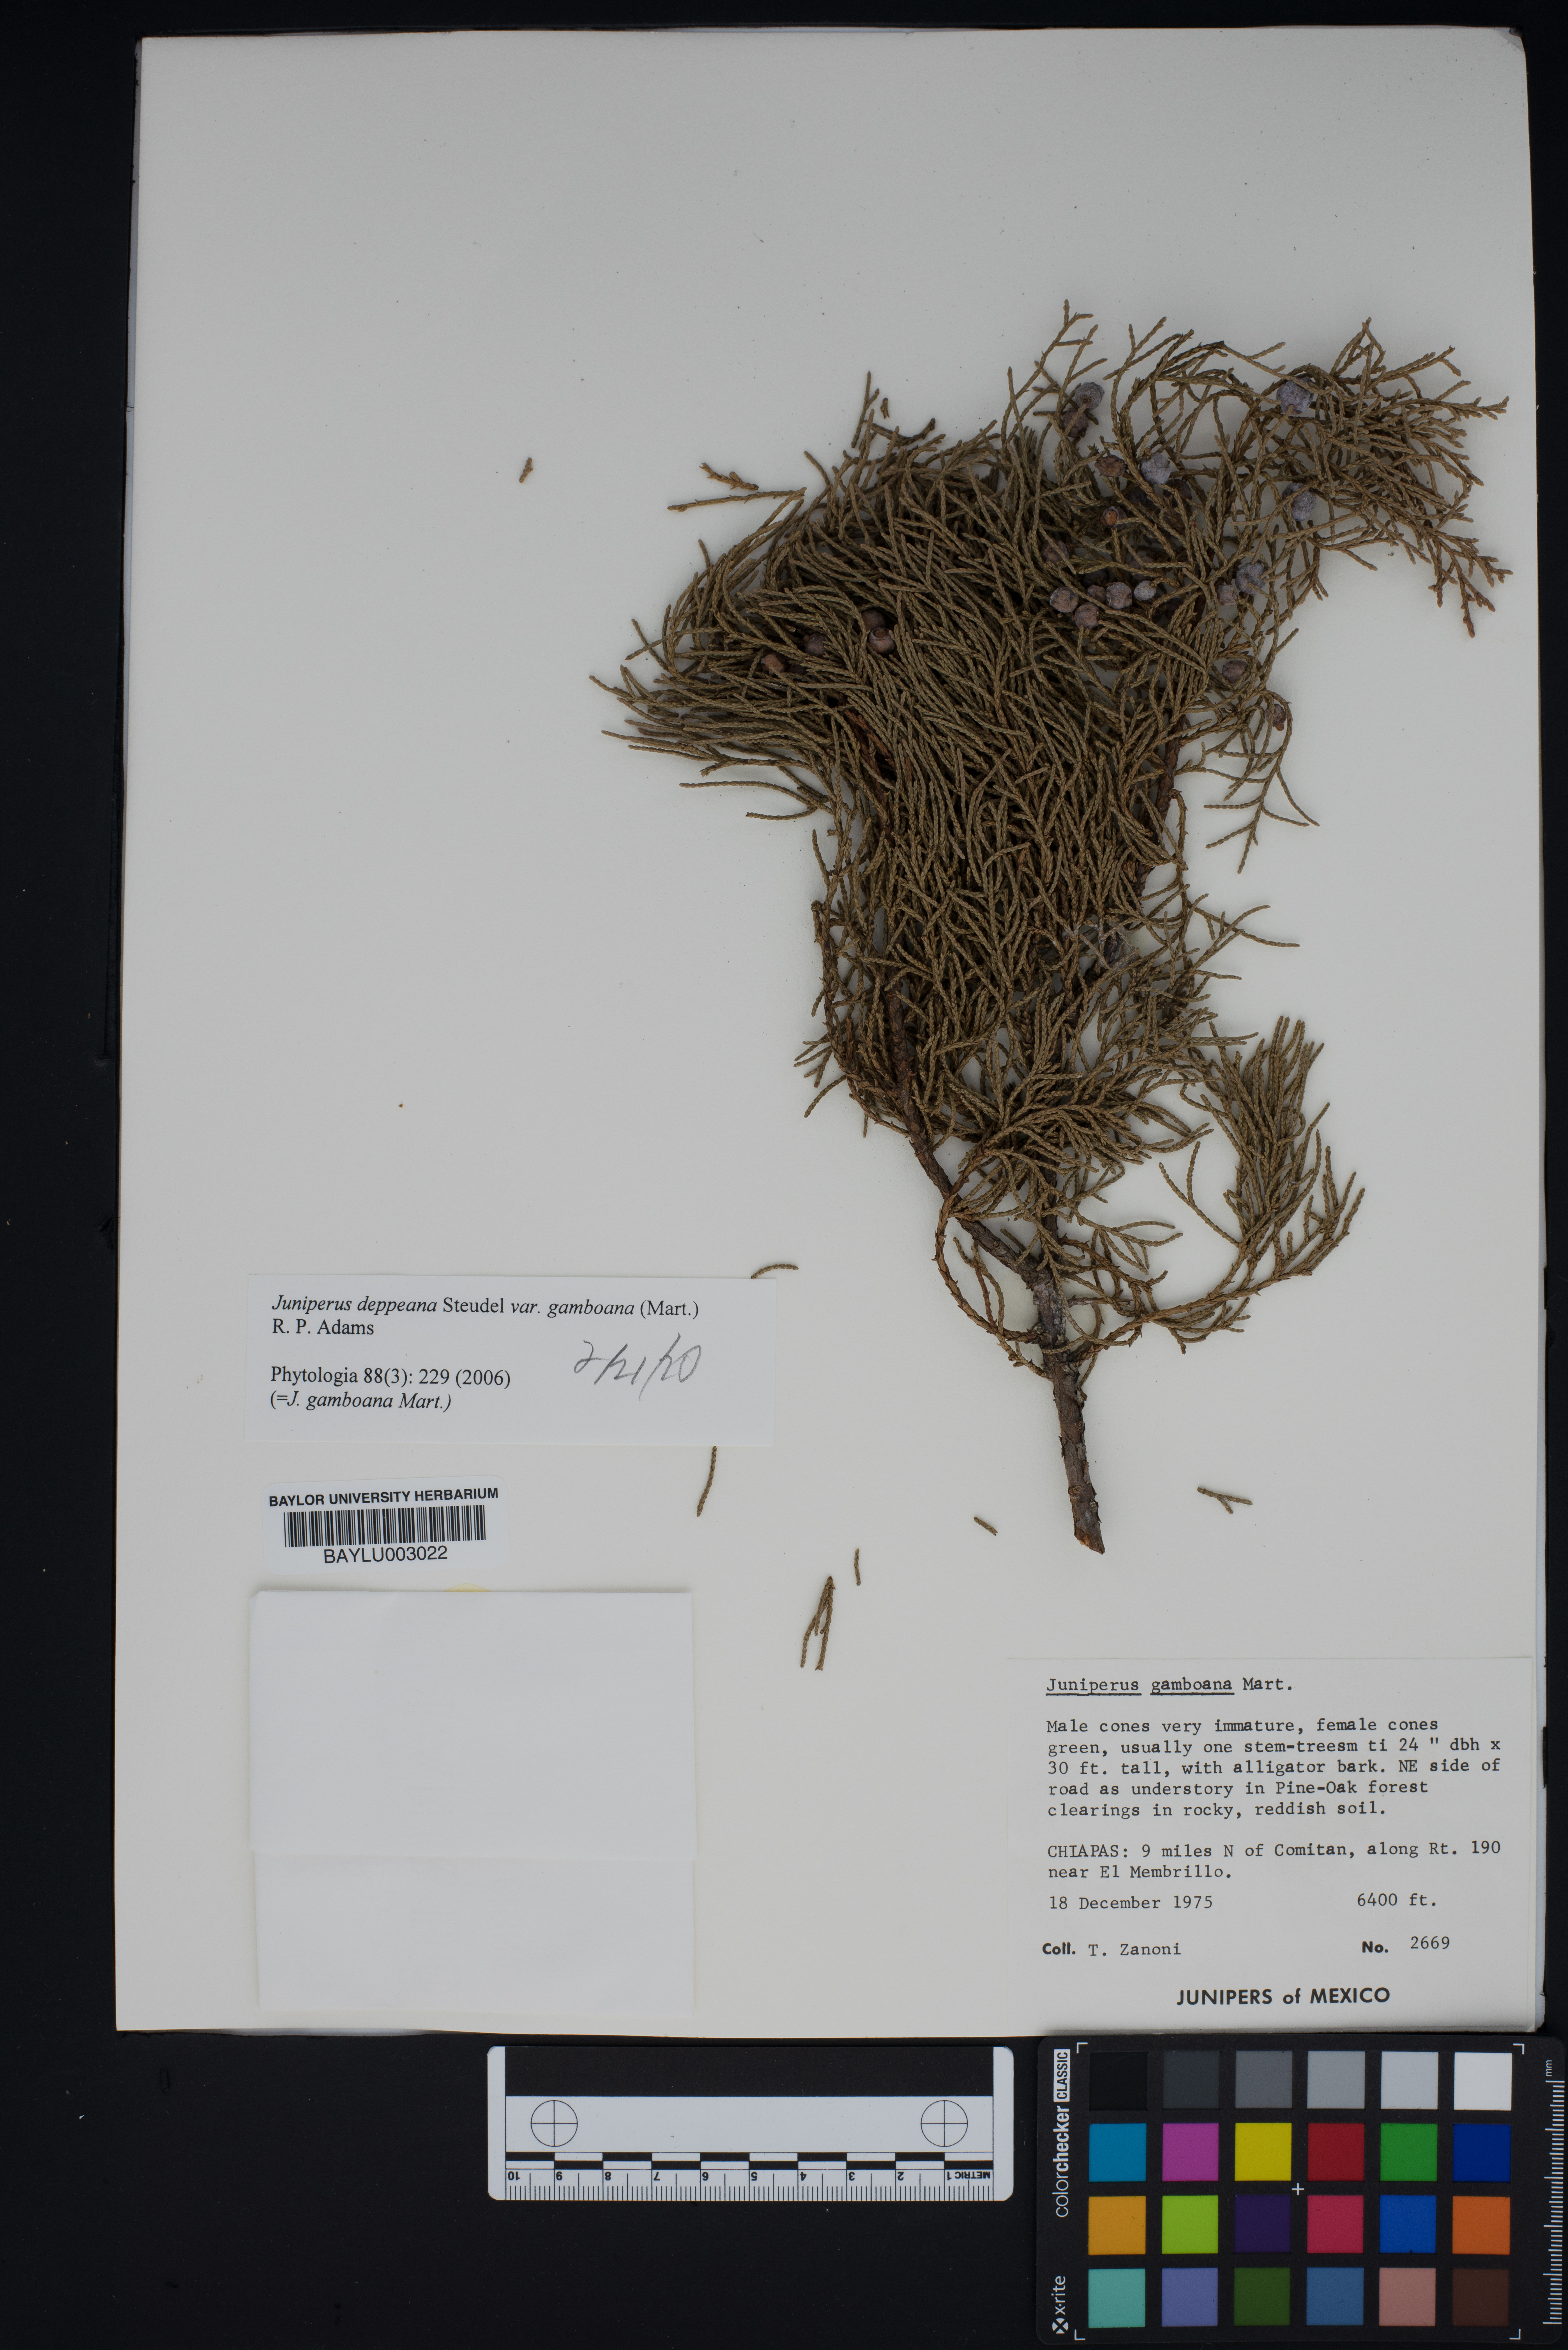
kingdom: Plantae
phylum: Tracheophyta
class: Pinopsida
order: Pinales
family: Cupressaceae
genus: Juniperus
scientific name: Juniperus gamboana
